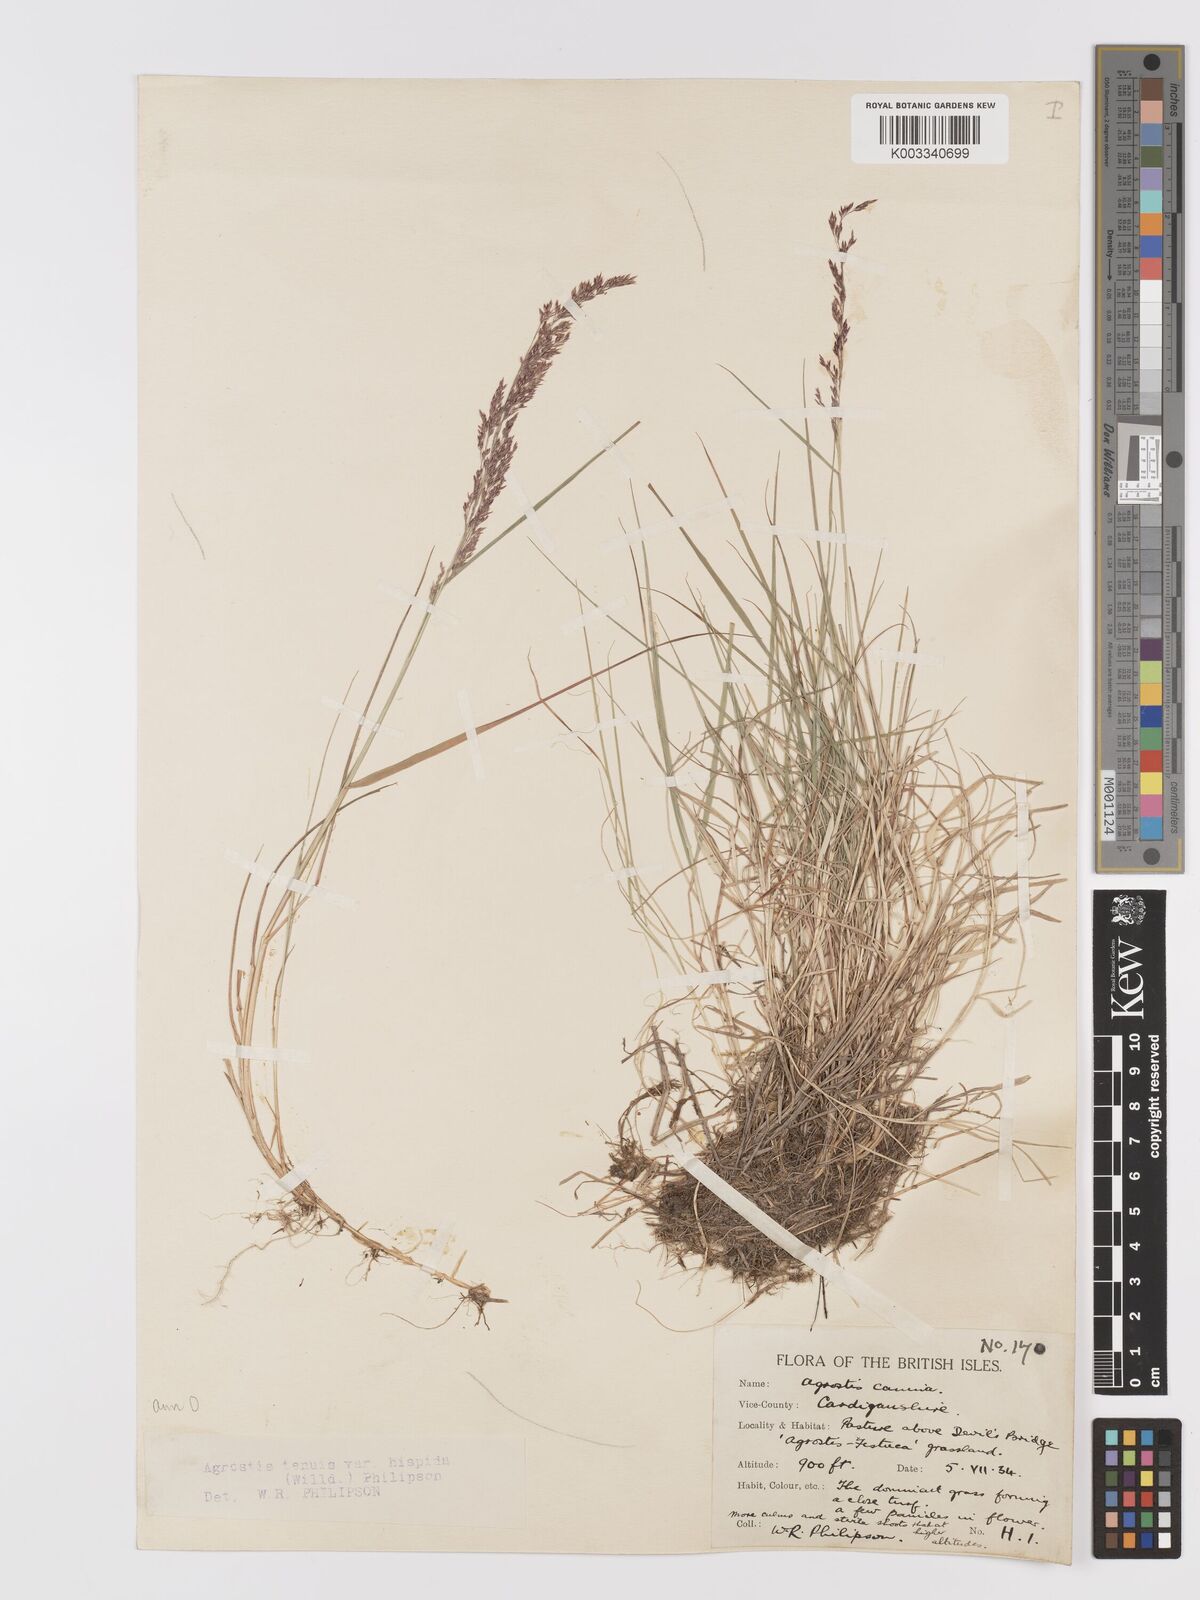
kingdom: Plantae
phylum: Tracheophyta
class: Liliopsida
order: Poales
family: Poaceae
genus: Agrostis
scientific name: Agrostis capillaris
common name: Colonial bentgrass
